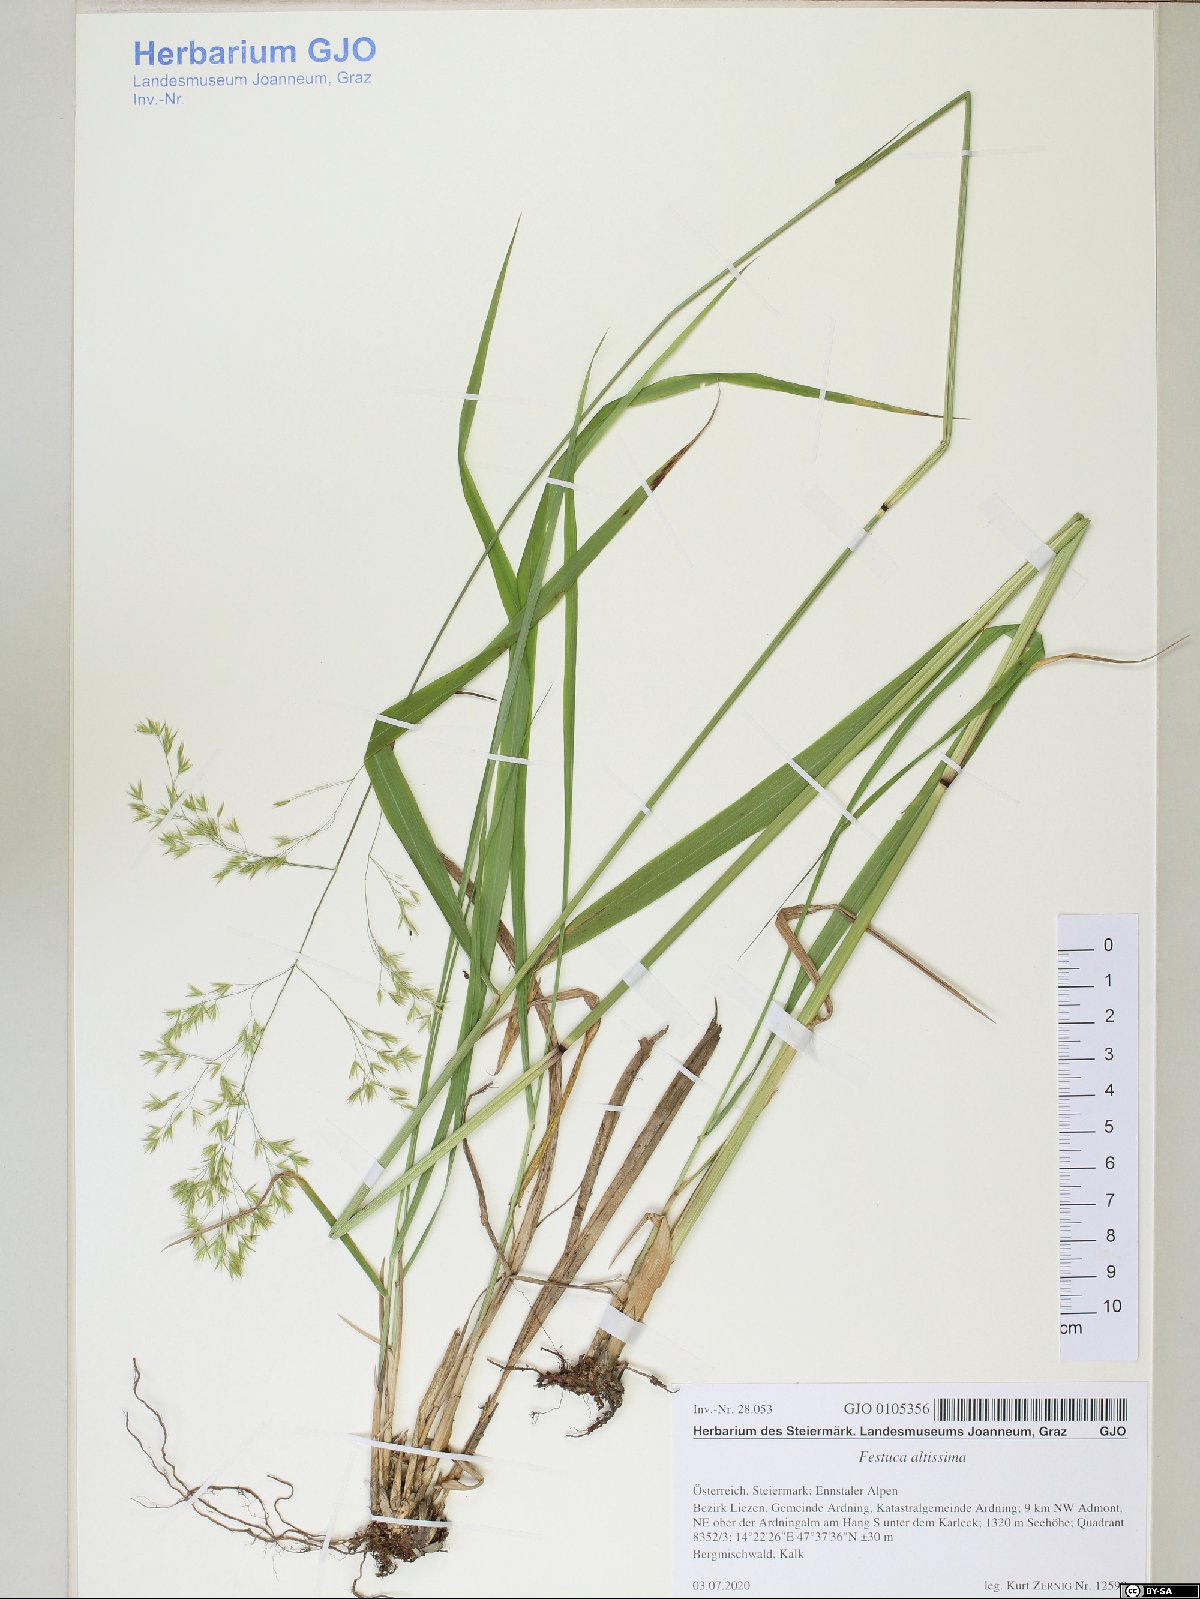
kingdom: Plantae
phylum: Tracheophyta
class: Liliopsida
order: Poales
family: Poaceae
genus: Festuca
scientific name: Festuca altissima
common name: Wood fescue
